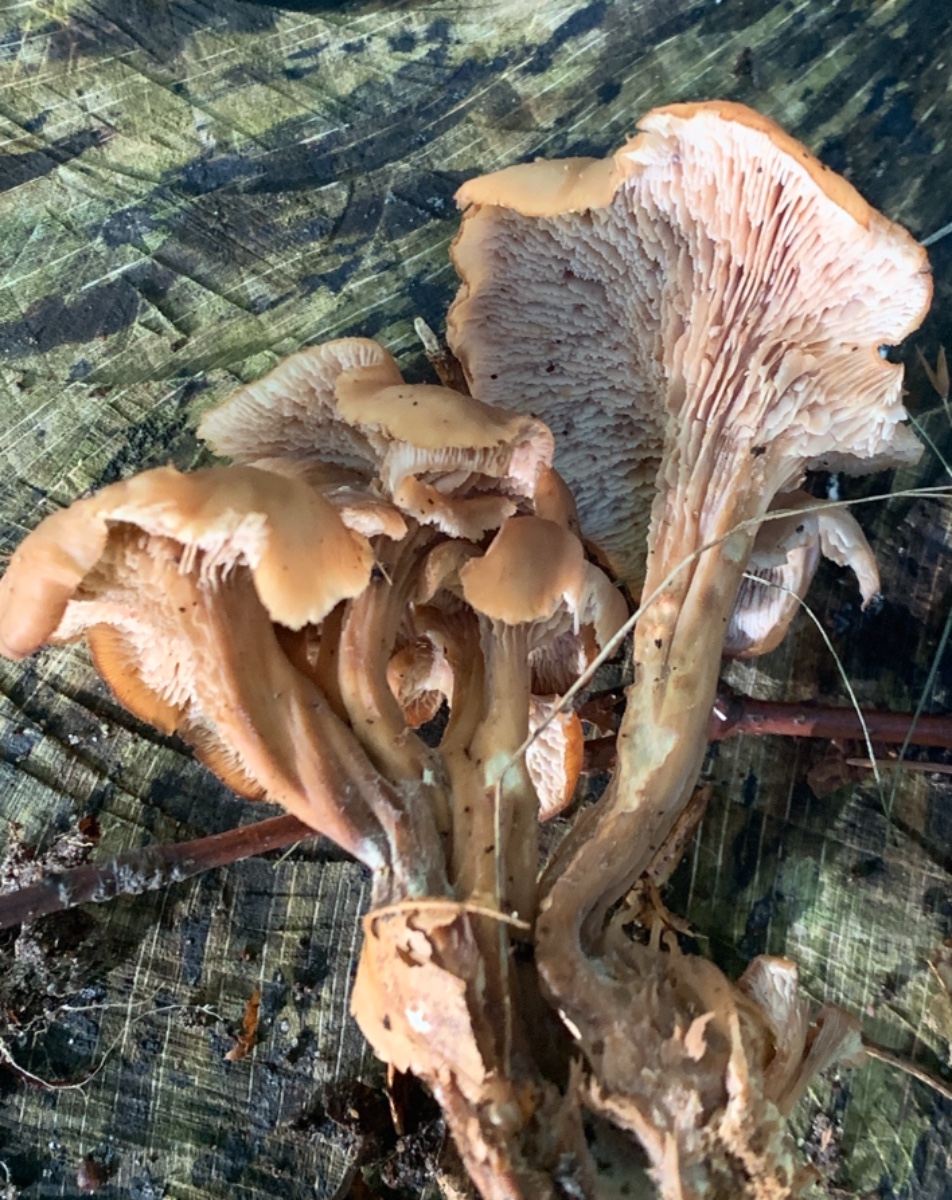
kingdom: Fungi
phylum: Basidiomycota
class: Agaricomycetes
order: Russulales
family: Auriscalpiaceae
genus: Lentinellus
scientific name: Lentinellus cochleatus
